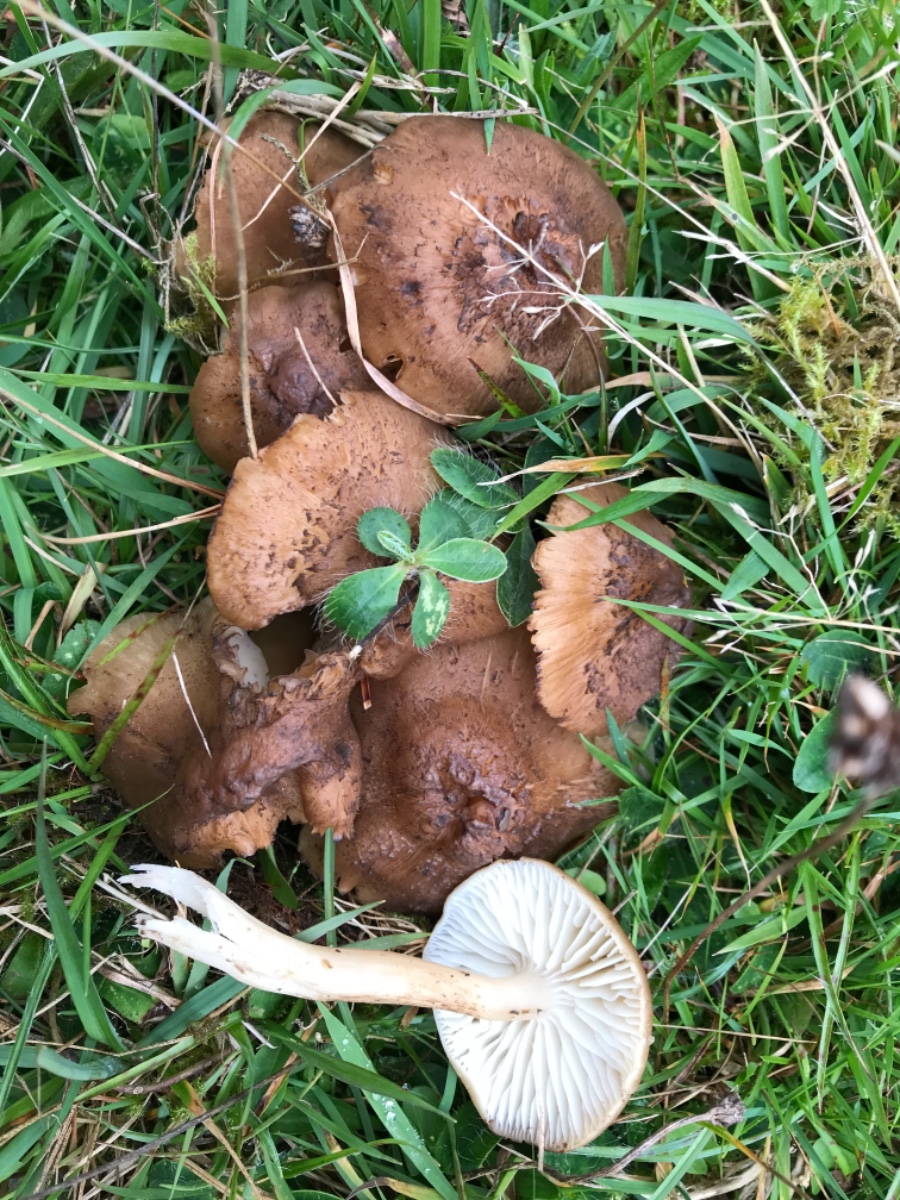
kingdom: Fungi
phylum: Basidiomycota
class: Agaricomycetes
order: Agaricales
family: Hygrophoraceae
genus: Hygrocybe
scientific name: Hygrocybe ingrata
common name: Jensens vokshat
